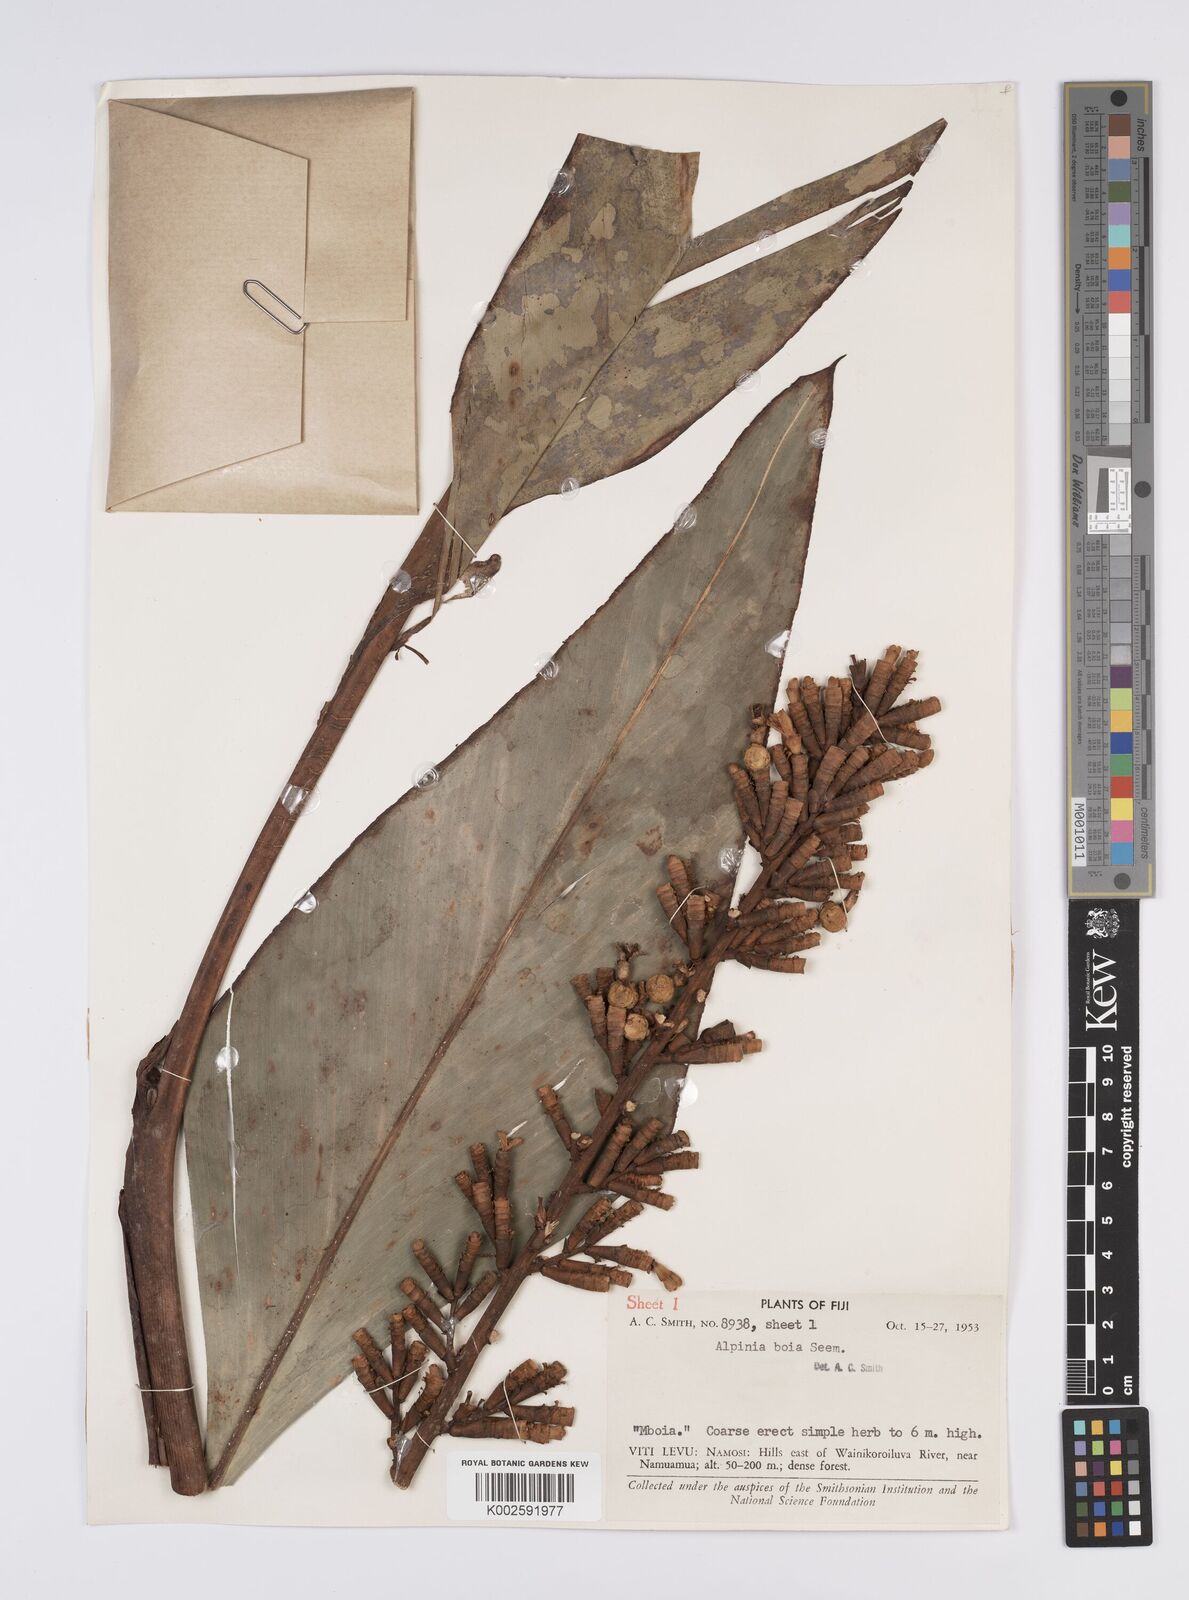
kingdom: Plantae
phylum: Tracheophyta
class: Liliopsida
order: Zingiberales
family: Zingiberaceae
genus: Alpinia
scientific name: Alpinia boia
